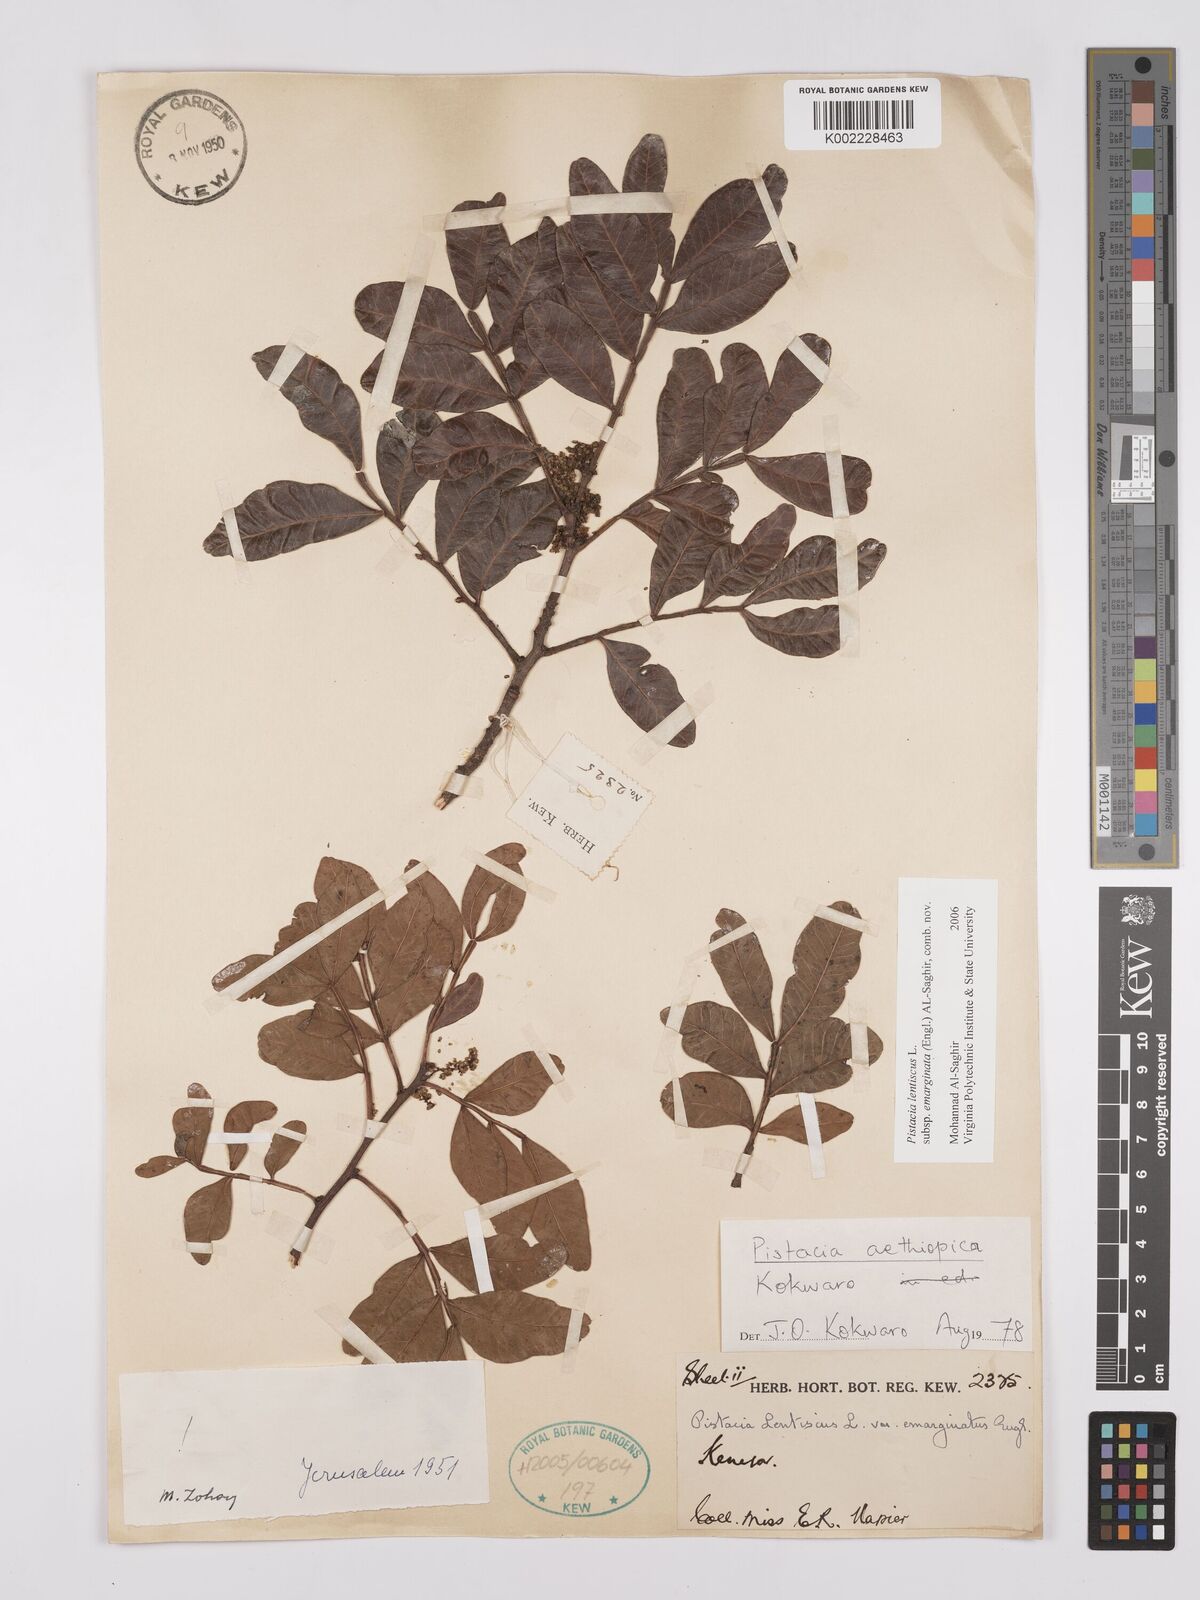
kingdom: Plantae
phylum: Tracheophyta
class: Magnoliopsida
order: Sapindales
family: Anacardiaceae
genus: Pistacia
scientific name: Pistacia lentiscus
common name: Lentisk
